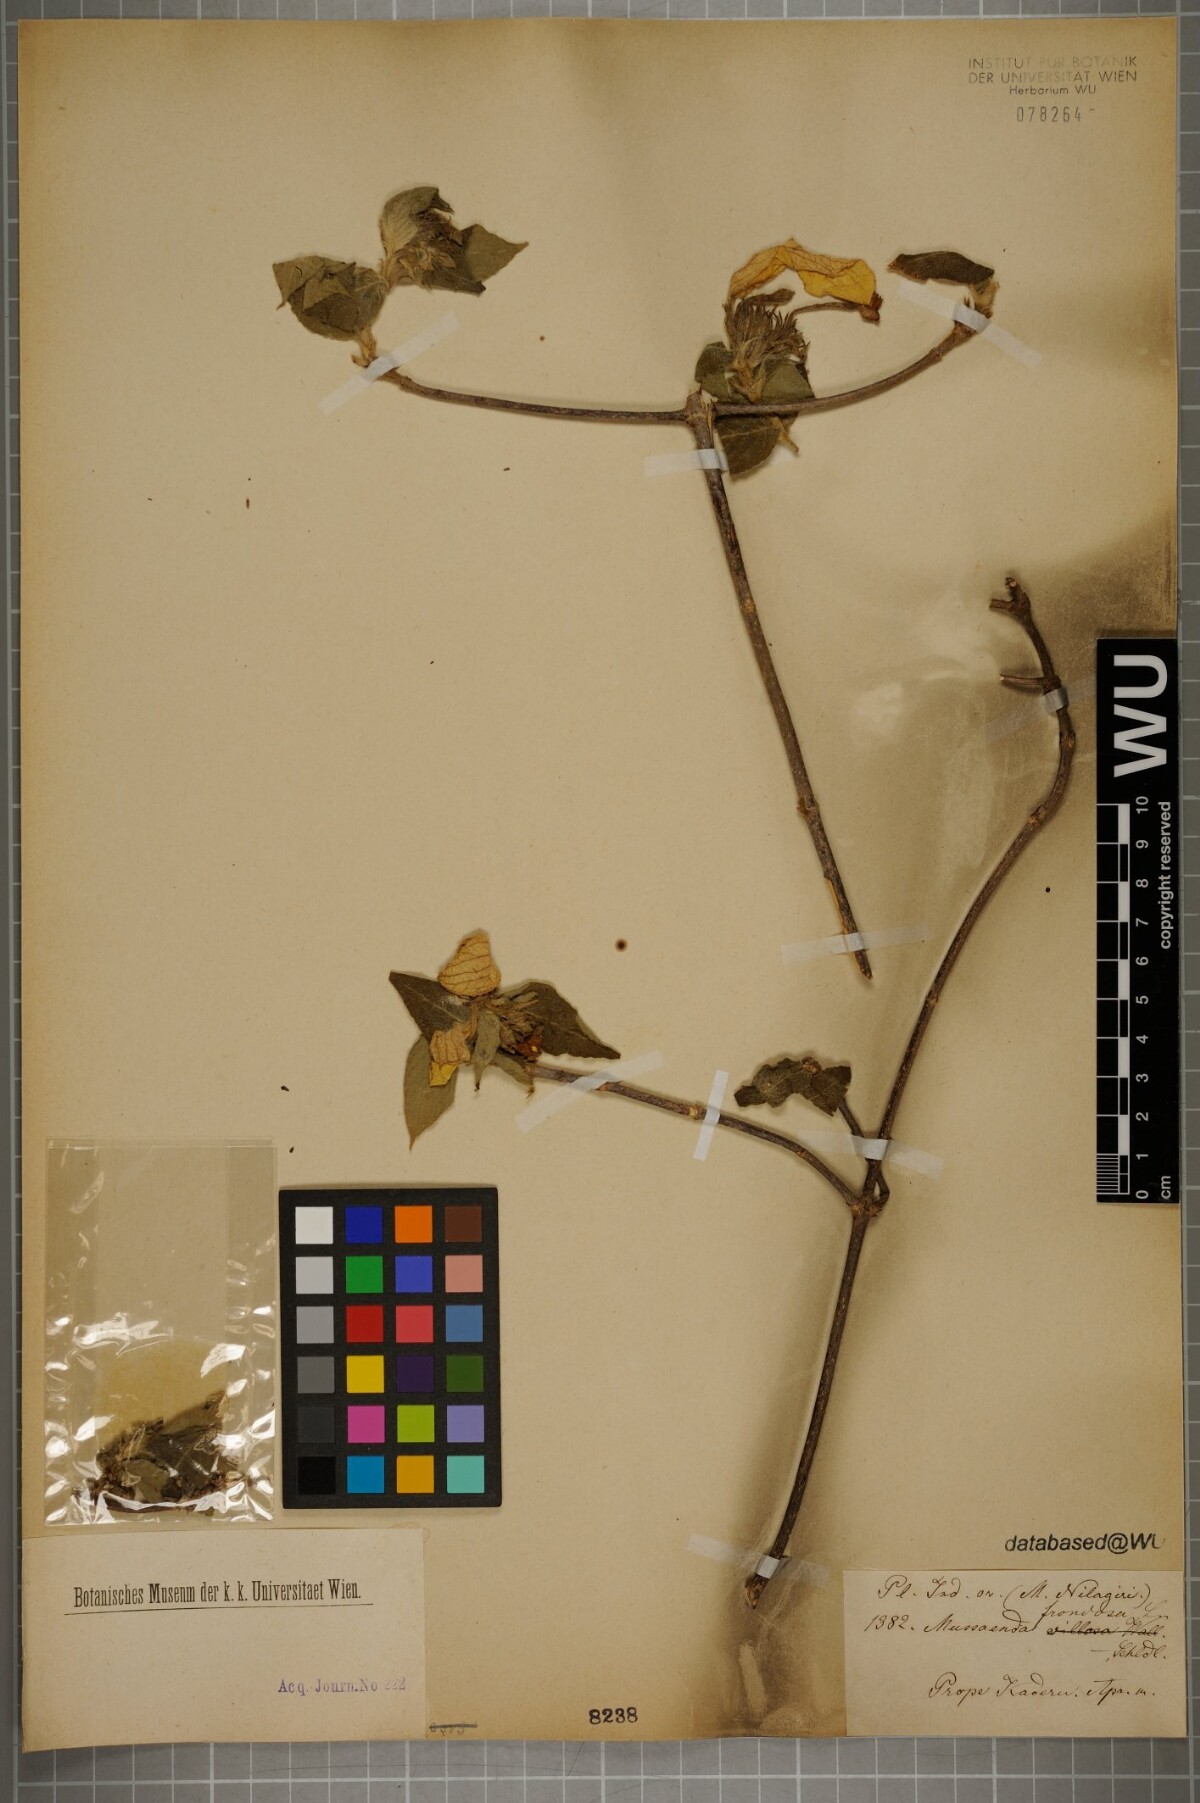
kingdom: Plantae
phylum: Tracheophyta
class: Magnoliopsida
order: Gentianales
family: Rubiaceae
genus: Mussaenda
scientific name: Mussaenda frondosa
